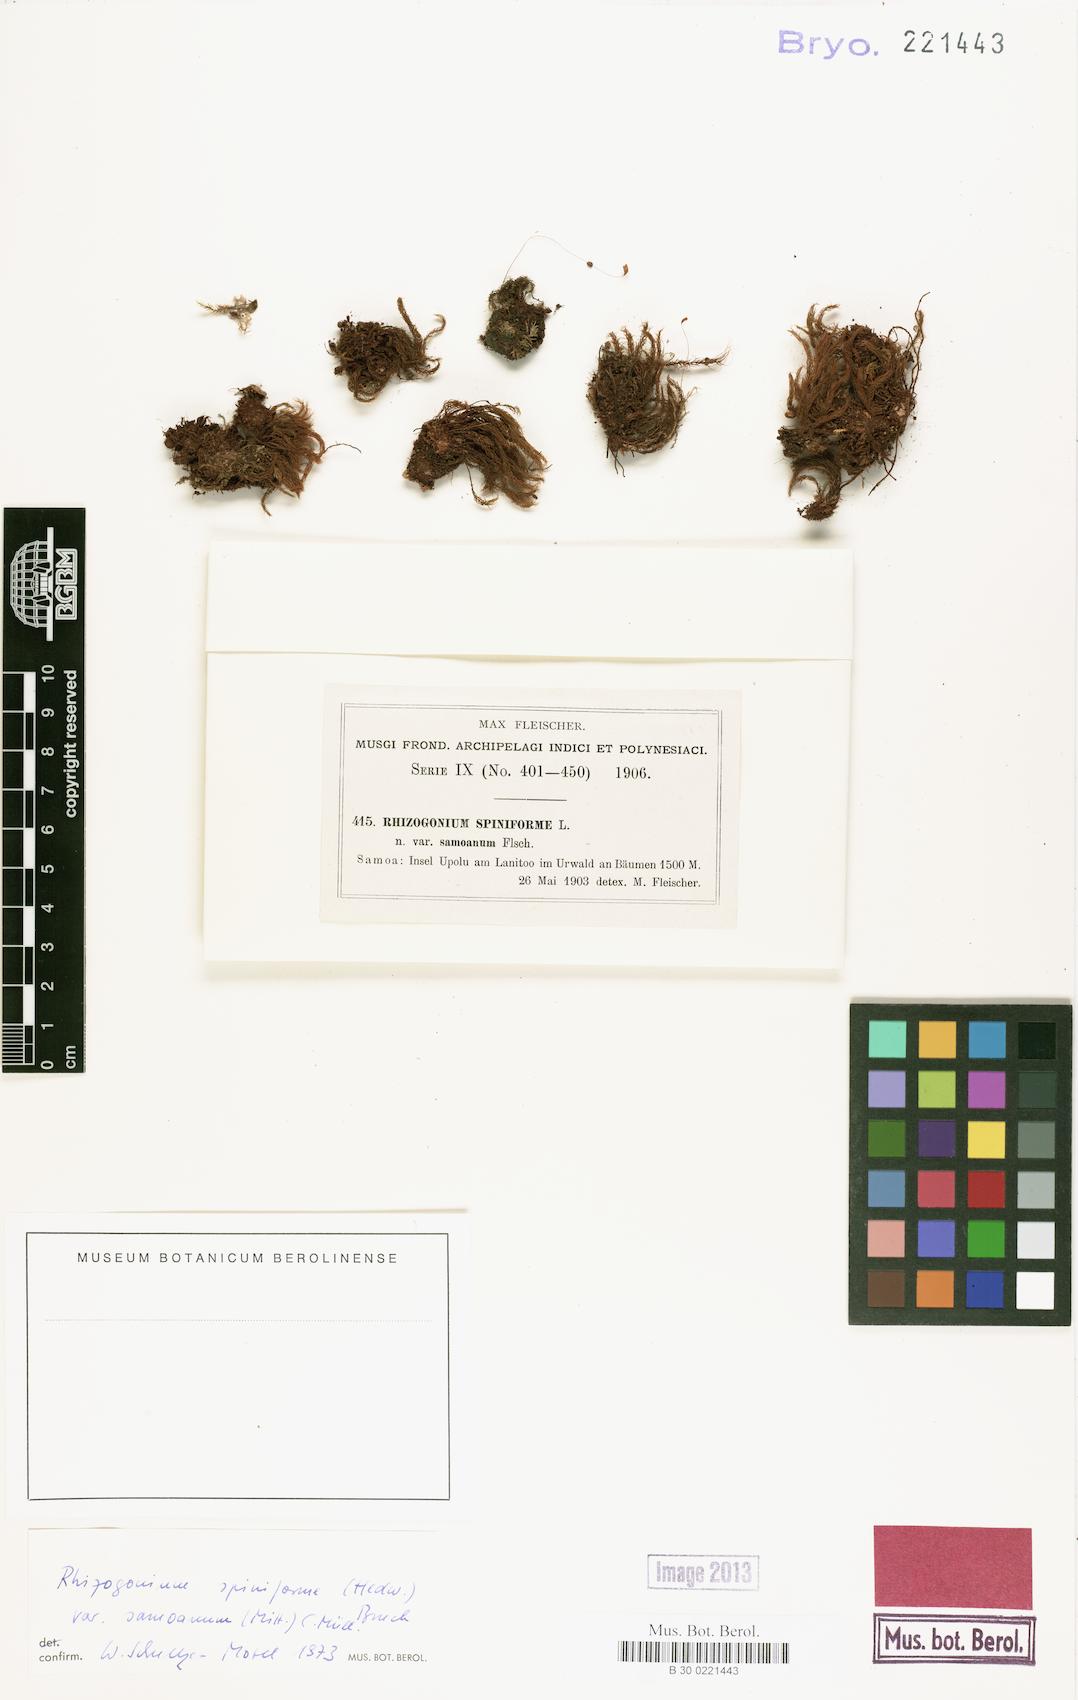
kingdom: Plantae
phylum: Bryophyta
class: Bryopsida
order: Rhizogoniales
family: Calomniaceae
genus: Pyrrhobryum
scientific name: Pyrrhobryum spiniforme
